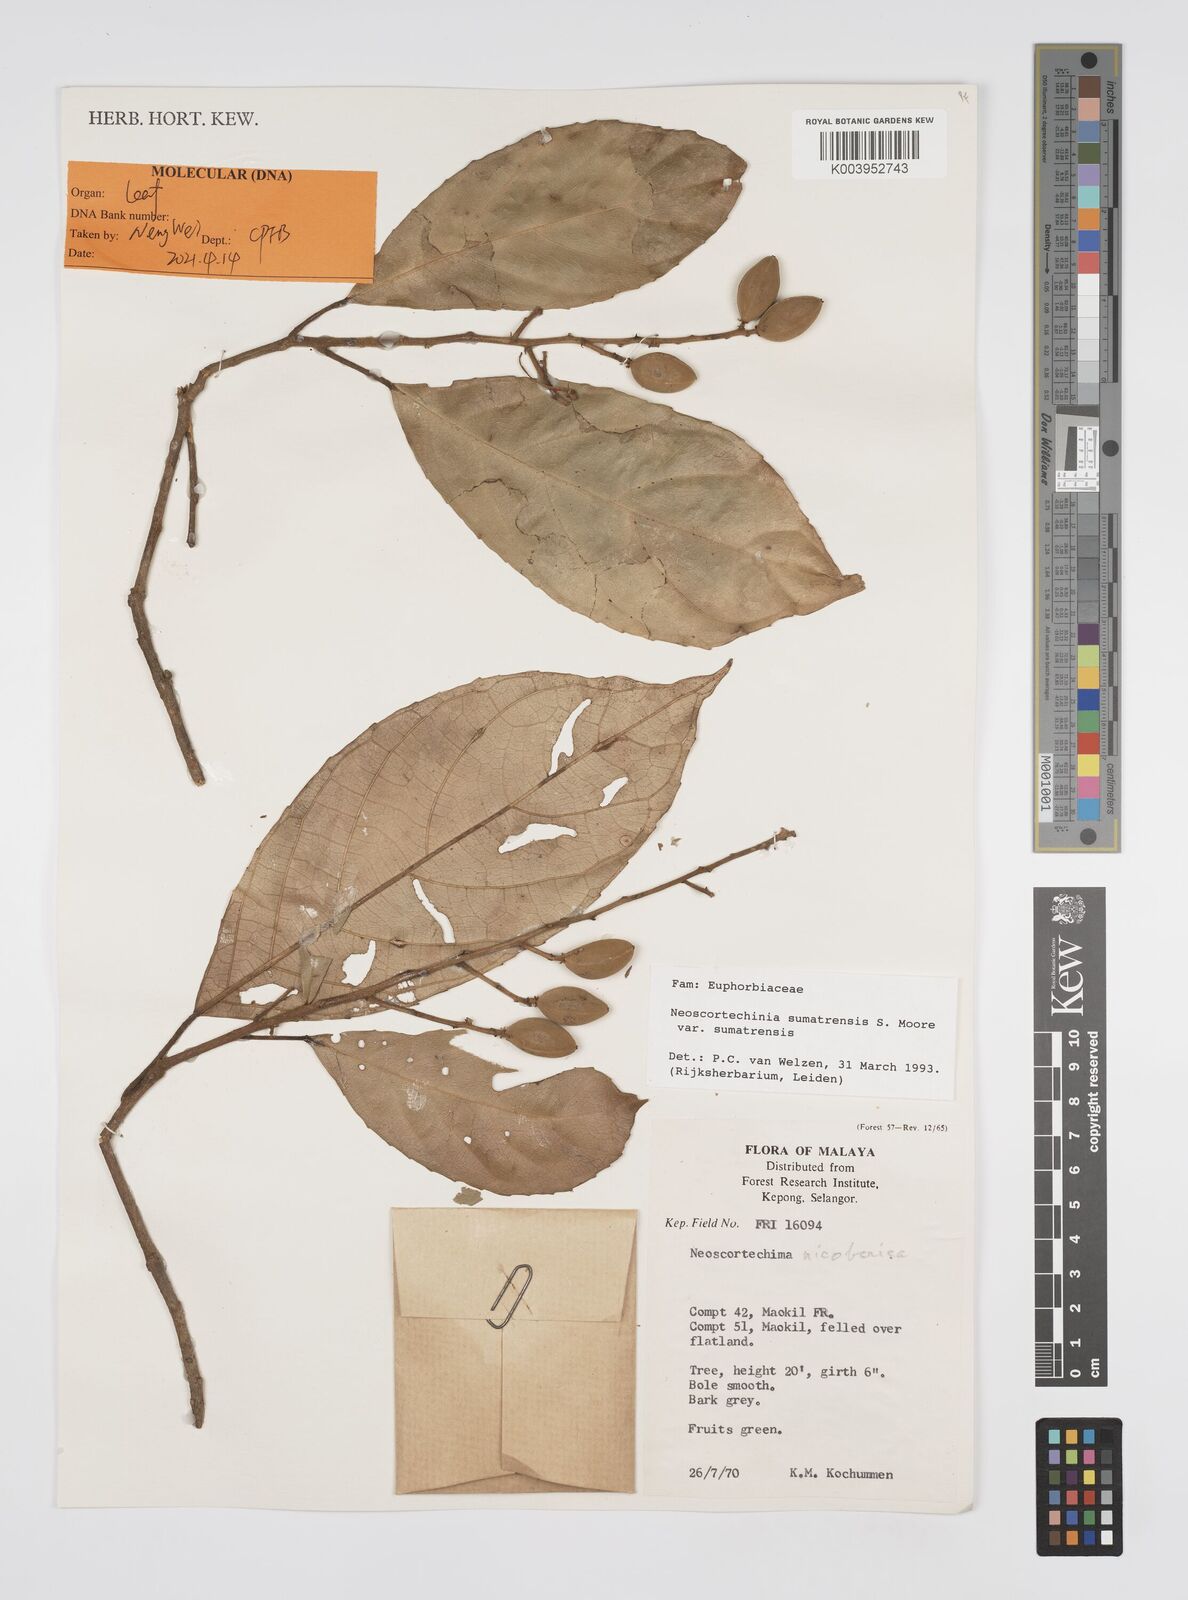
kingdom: Plantae
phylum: Tracheophyta
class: Magnoliopsida
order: Malpighiales
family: Euphorbiaceae
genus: Neoscortechinia
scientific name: Neoscortechinia sumatrensis
